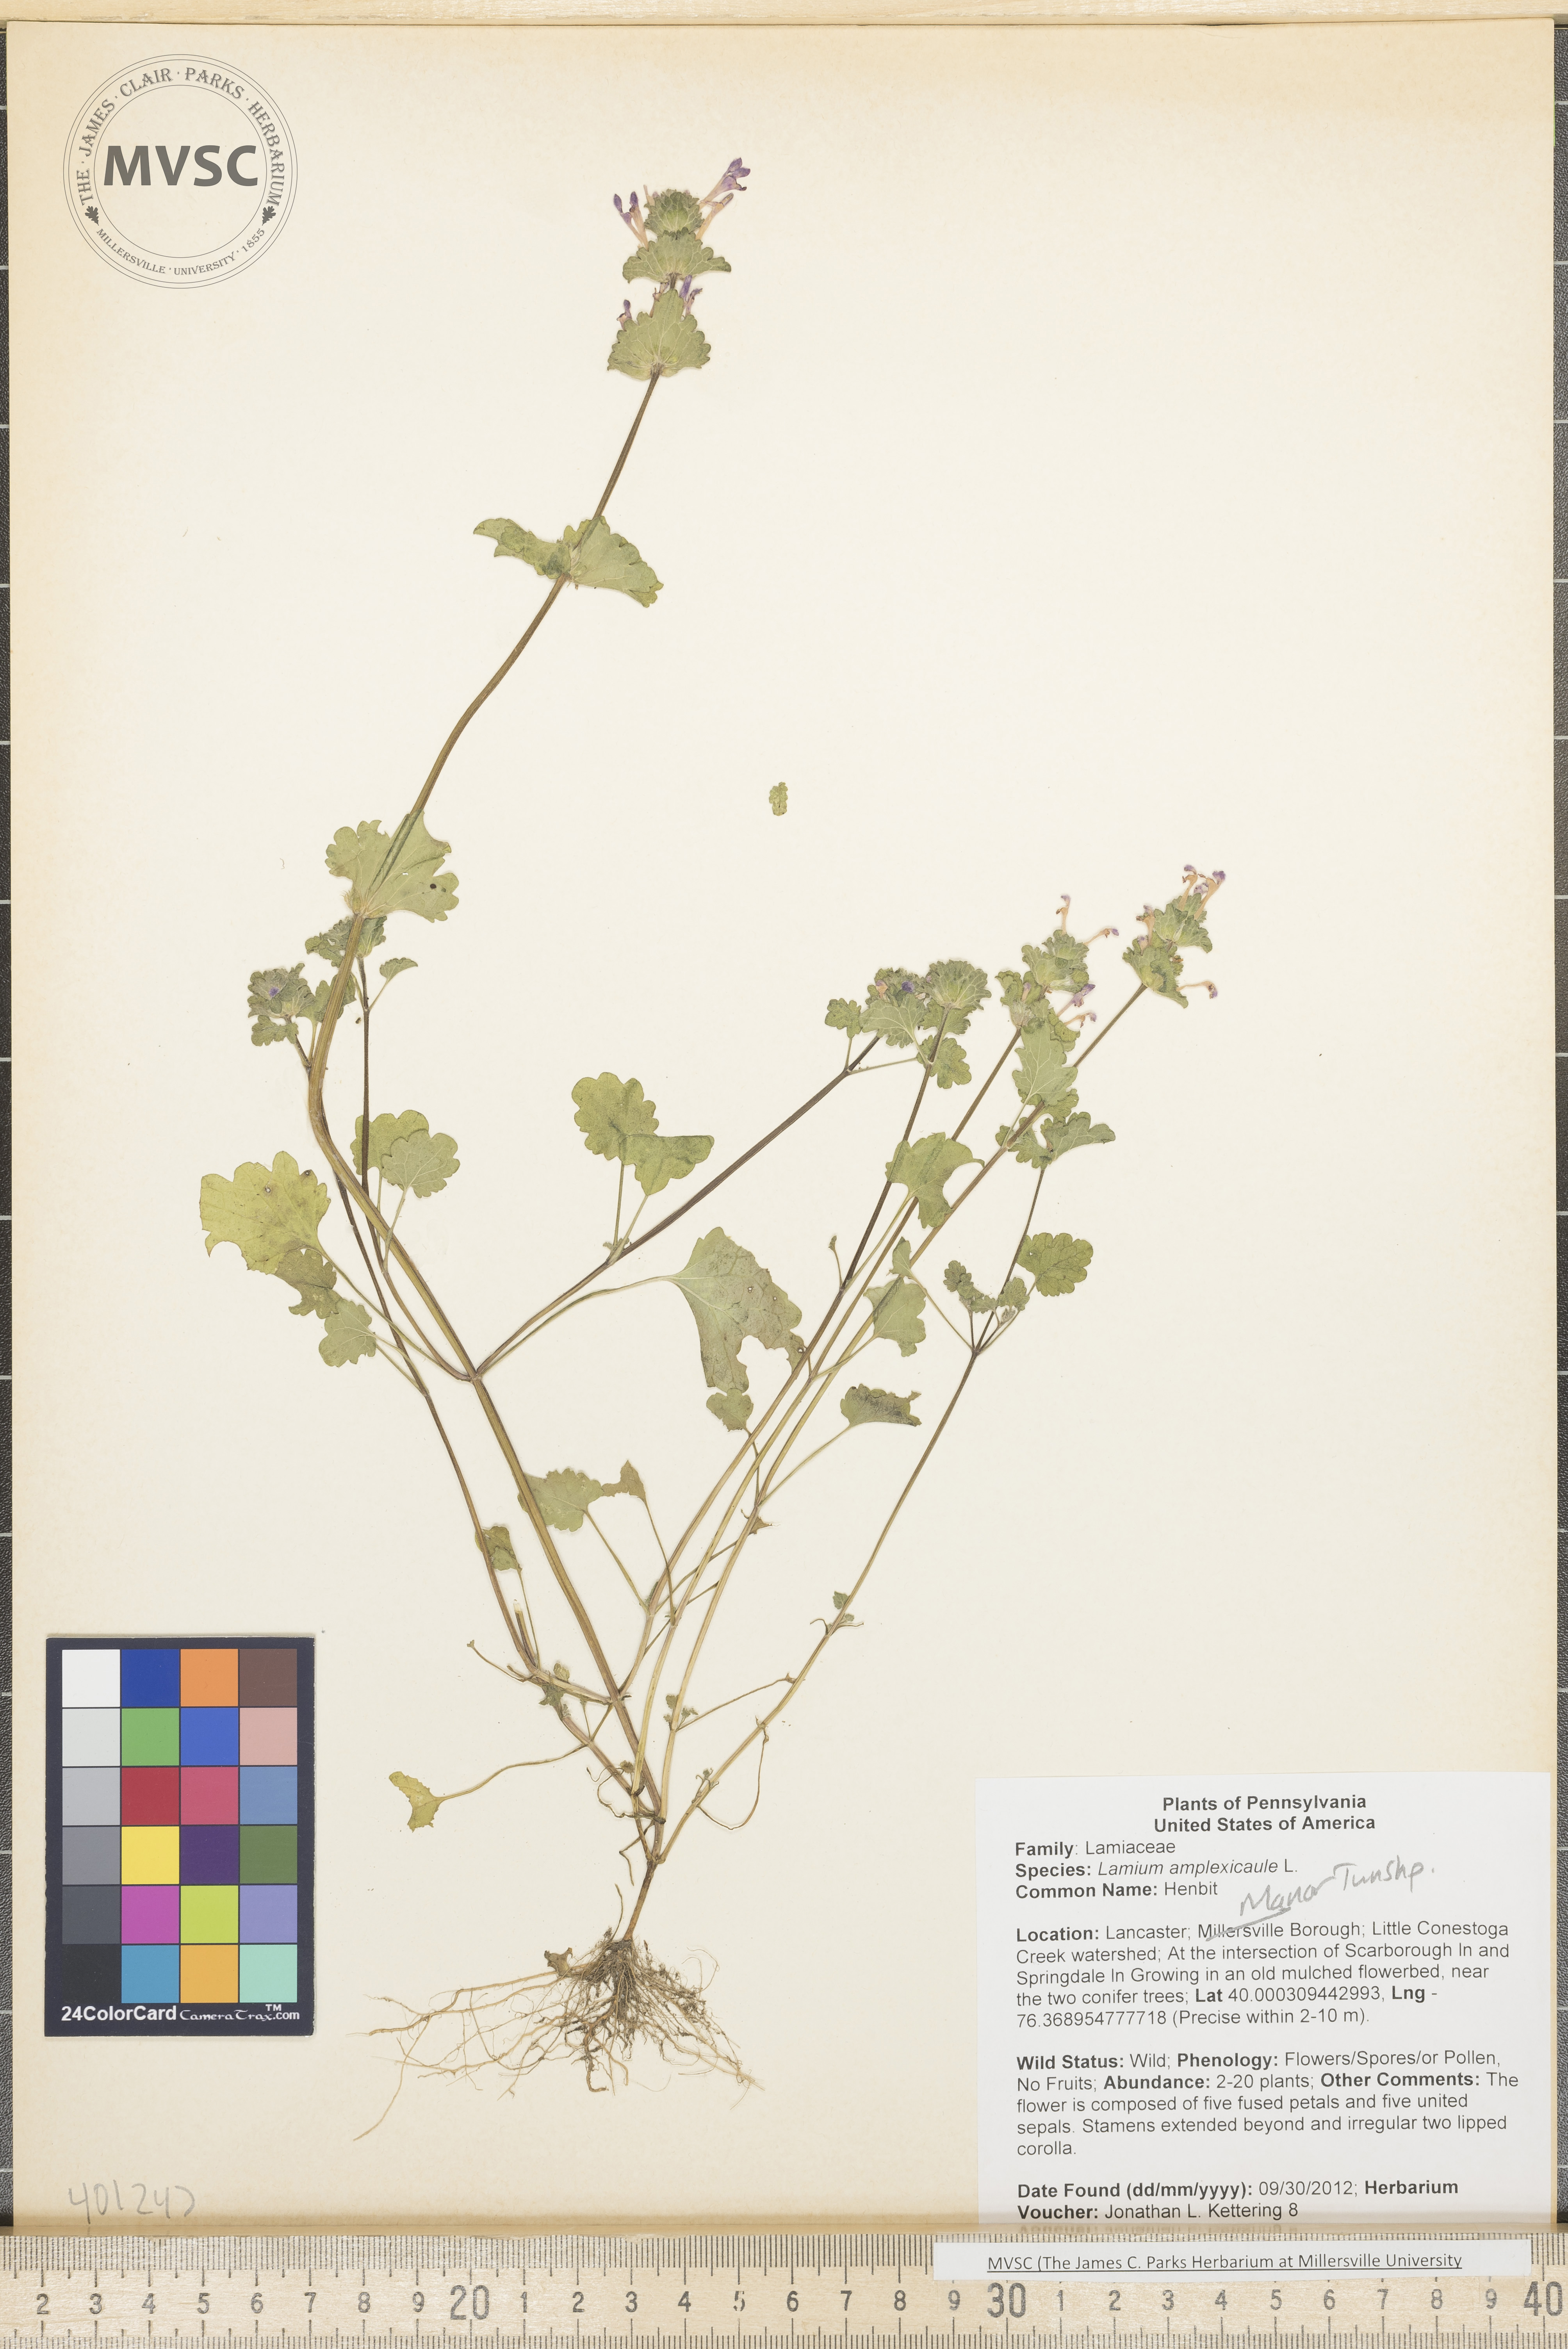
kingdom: Plantae
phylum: Tracheophyta
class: Magnoliopsida
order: Lamiales
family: Lamiaceae
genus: Lamium
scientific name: Lamium amplexicaule
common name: Henbit
